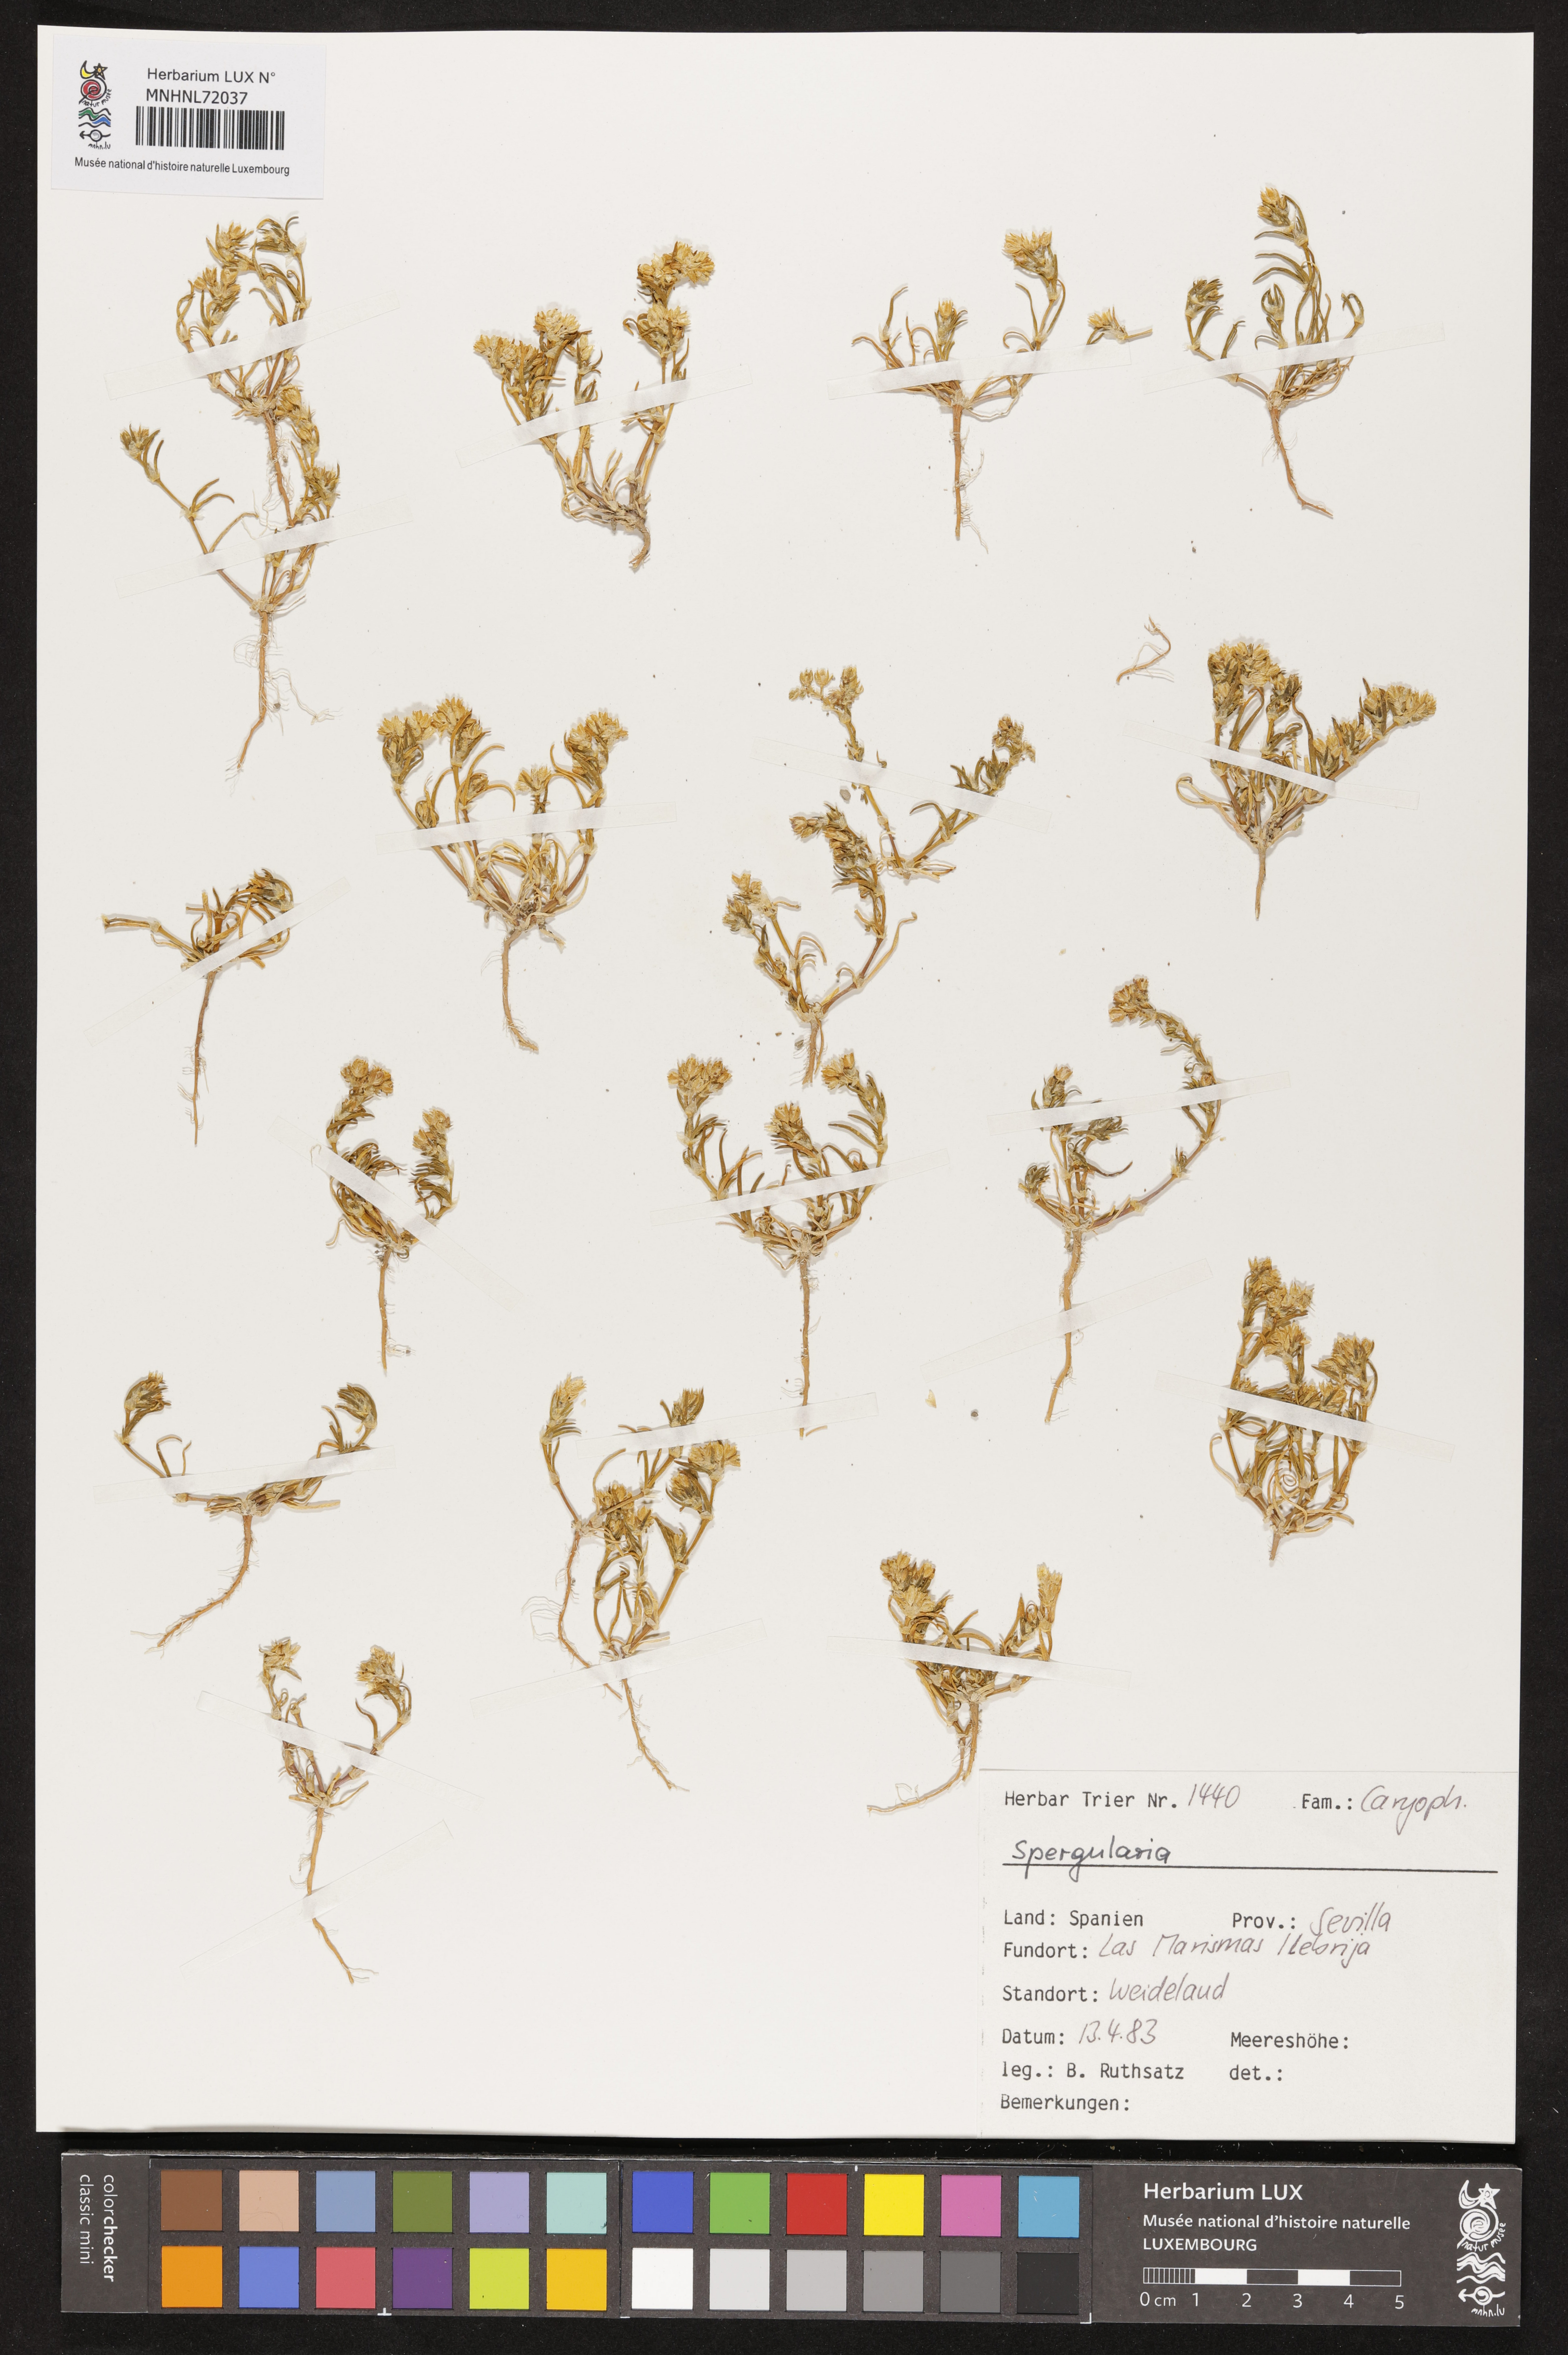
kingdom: Plantae
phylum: Tracheophyta
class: Magnoliopsida
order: Caryophyllales
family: Caryophyllaceae
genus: Spergularia
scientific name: Spergularia
